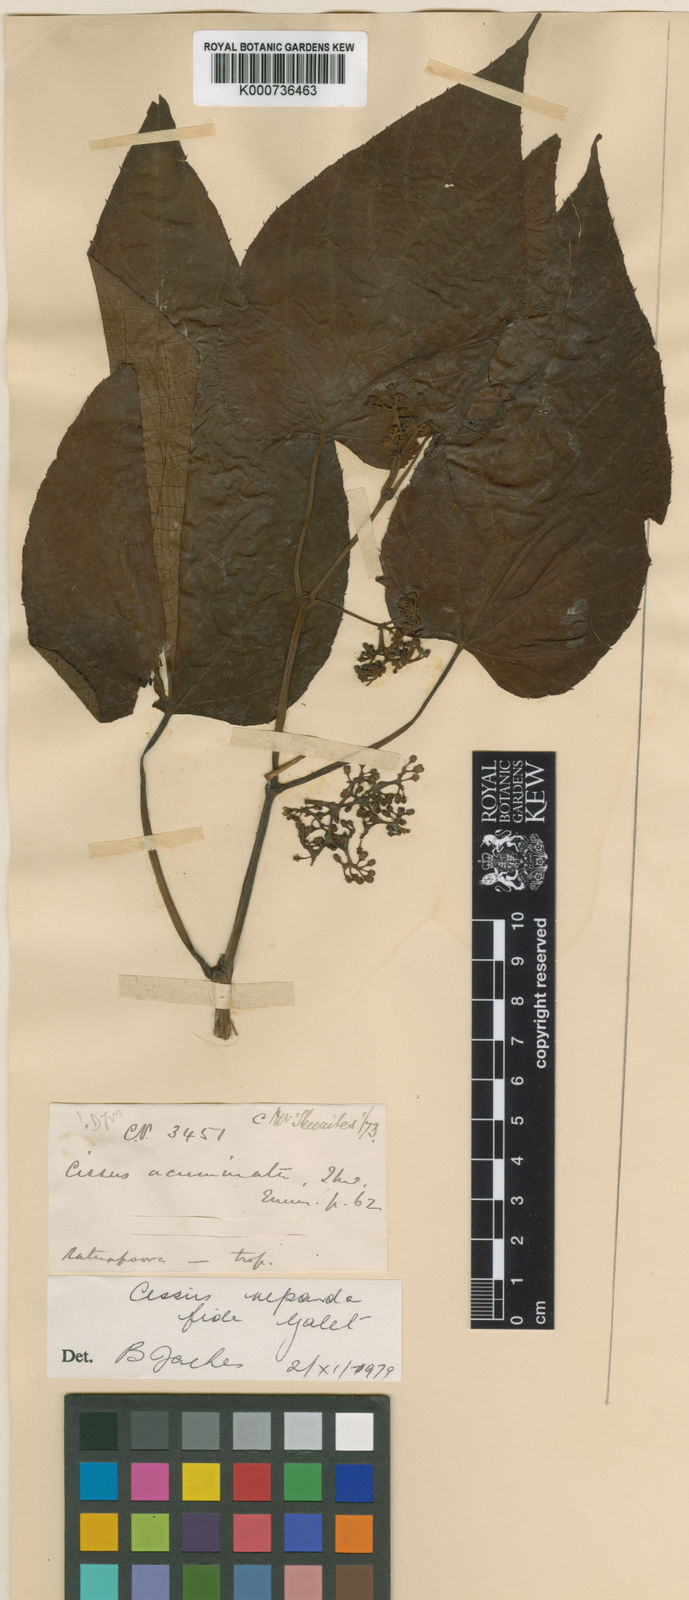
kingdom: Plantae
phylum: Tracheophyta
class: Magnoliopsida
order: Vitales
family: Vitaceae
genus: Cissus
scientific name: Cissus repanda
